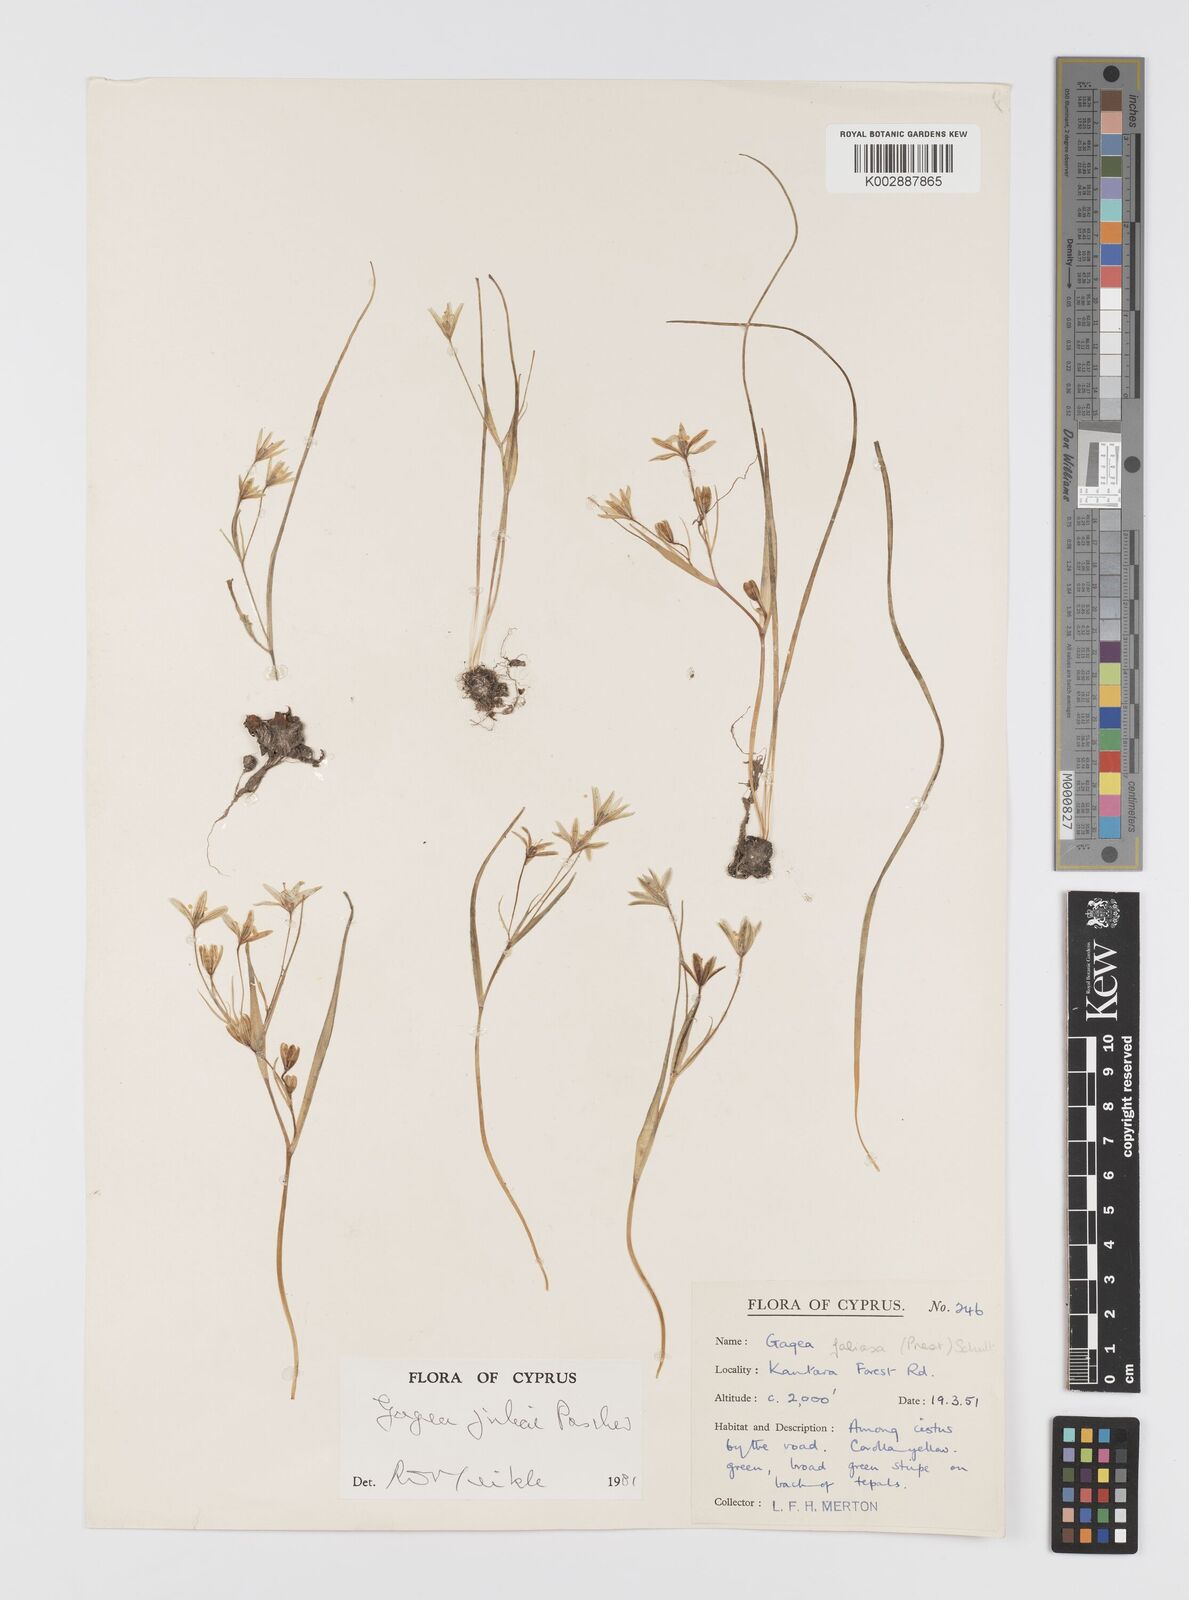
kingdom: Plantae
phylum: Tracheophyta
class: Liliopsida
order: Liliales
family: Liliaceae
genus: Gagea
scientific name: Gagea juliae
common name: Julia’s gagea
